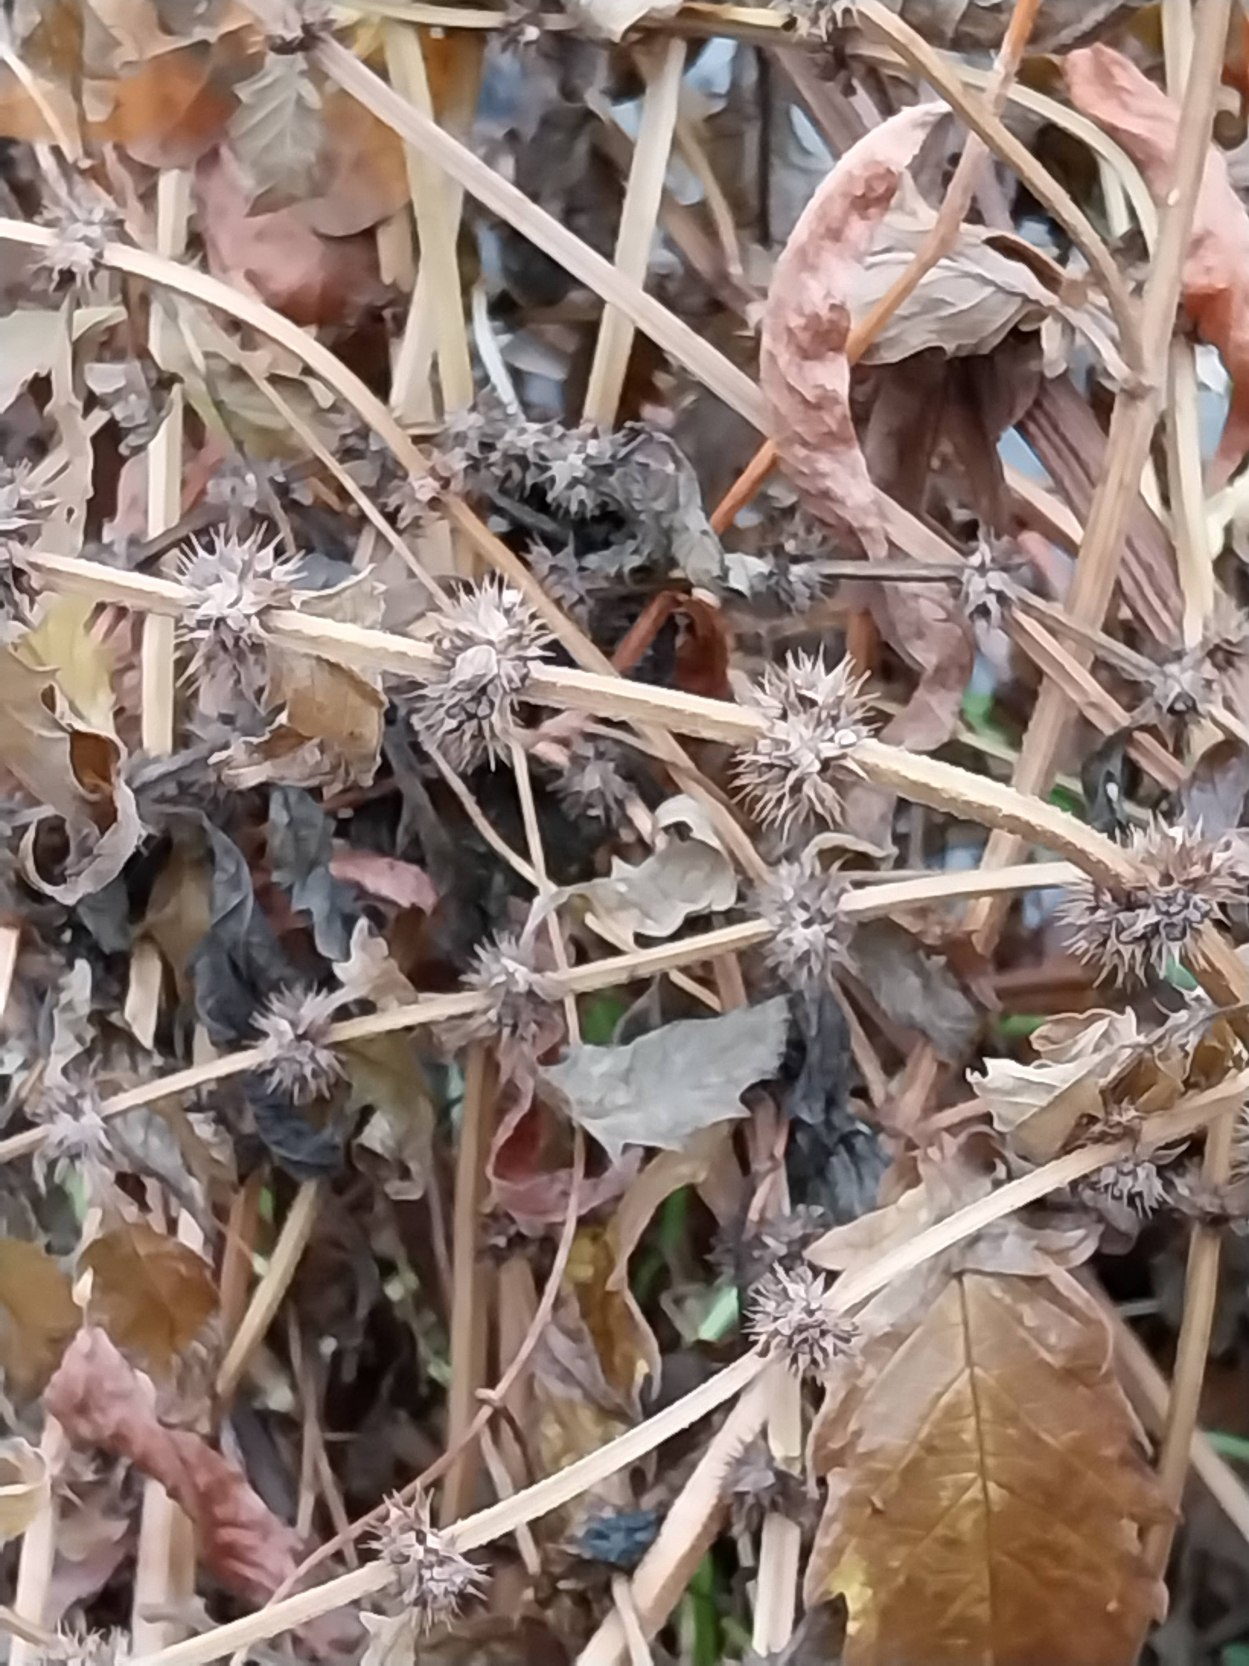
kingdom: Plantae
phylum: Tracheophyta
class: Magnoliopsida
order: Lamiales
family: Lamiaceae
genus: Lycopus
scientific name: Lycopus europaeus
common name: Sværtevæld
